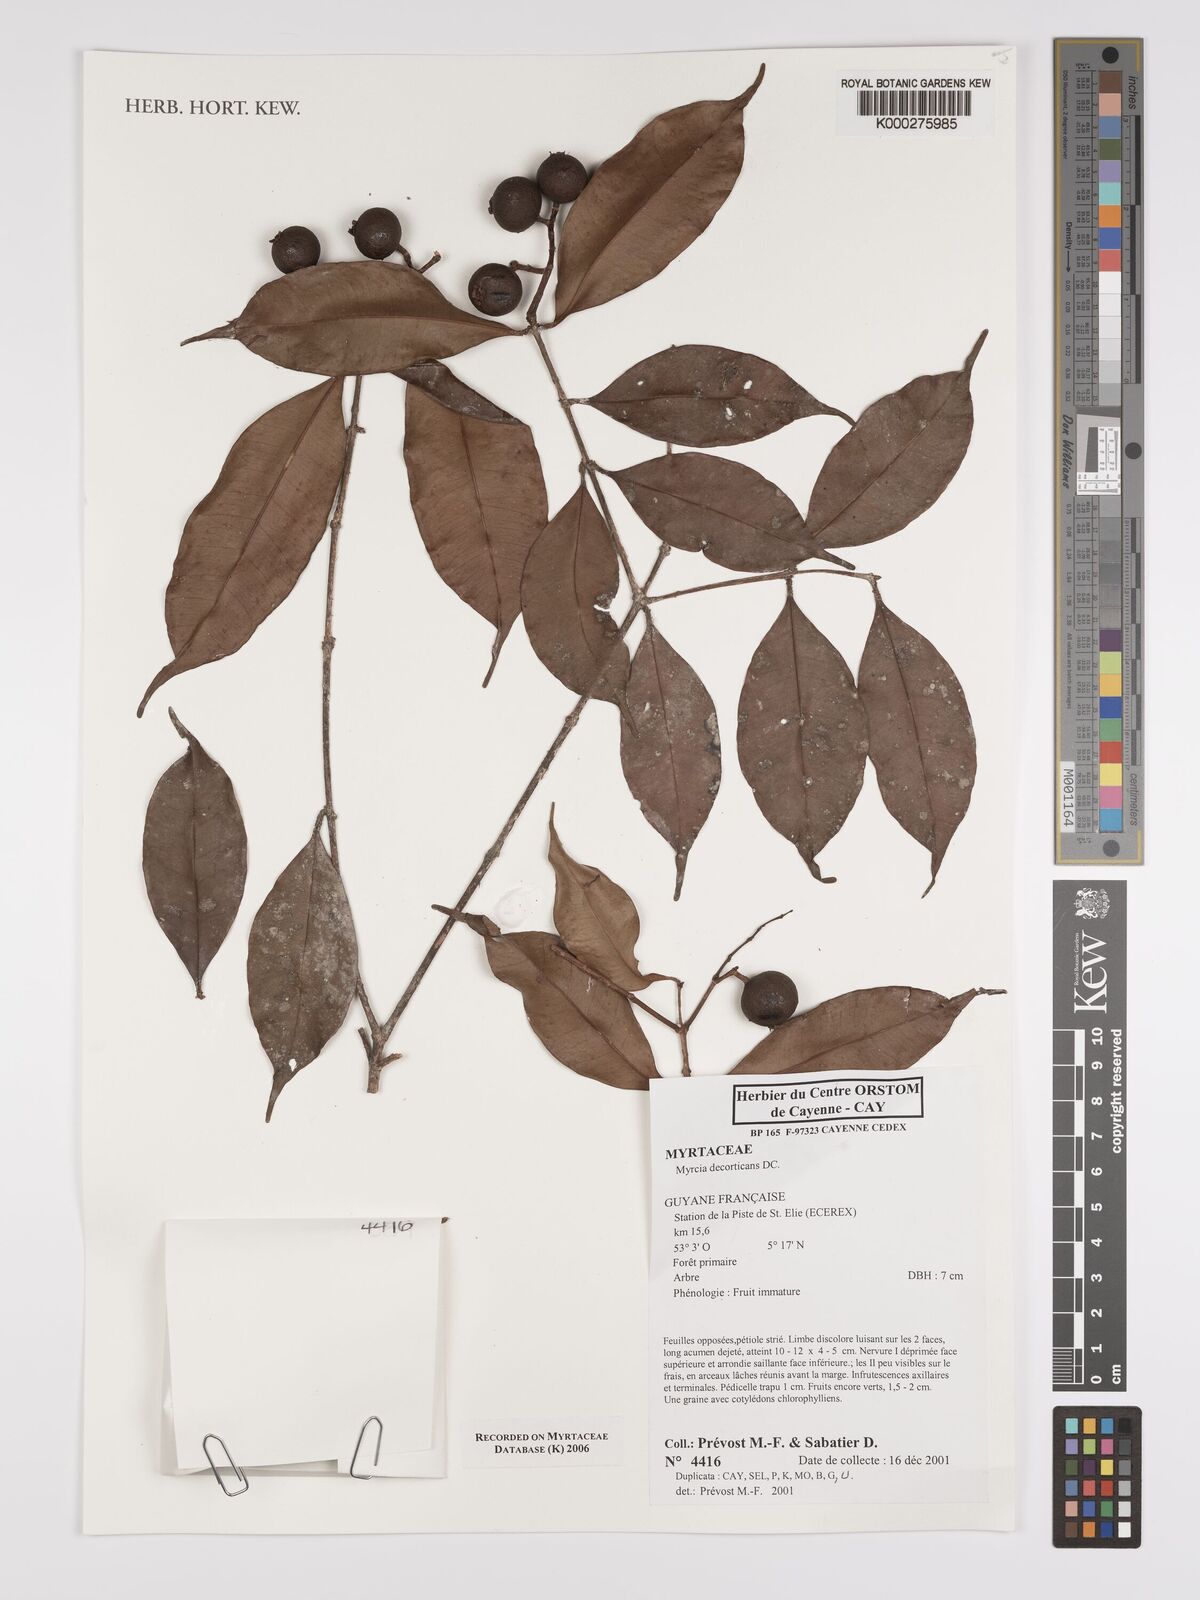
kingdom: Plantae
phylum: Tracheophyta
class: Magnoliopsida
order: Myrtales
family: Myrtaceae
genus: Myrcia
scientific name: Myrcia decorticans
